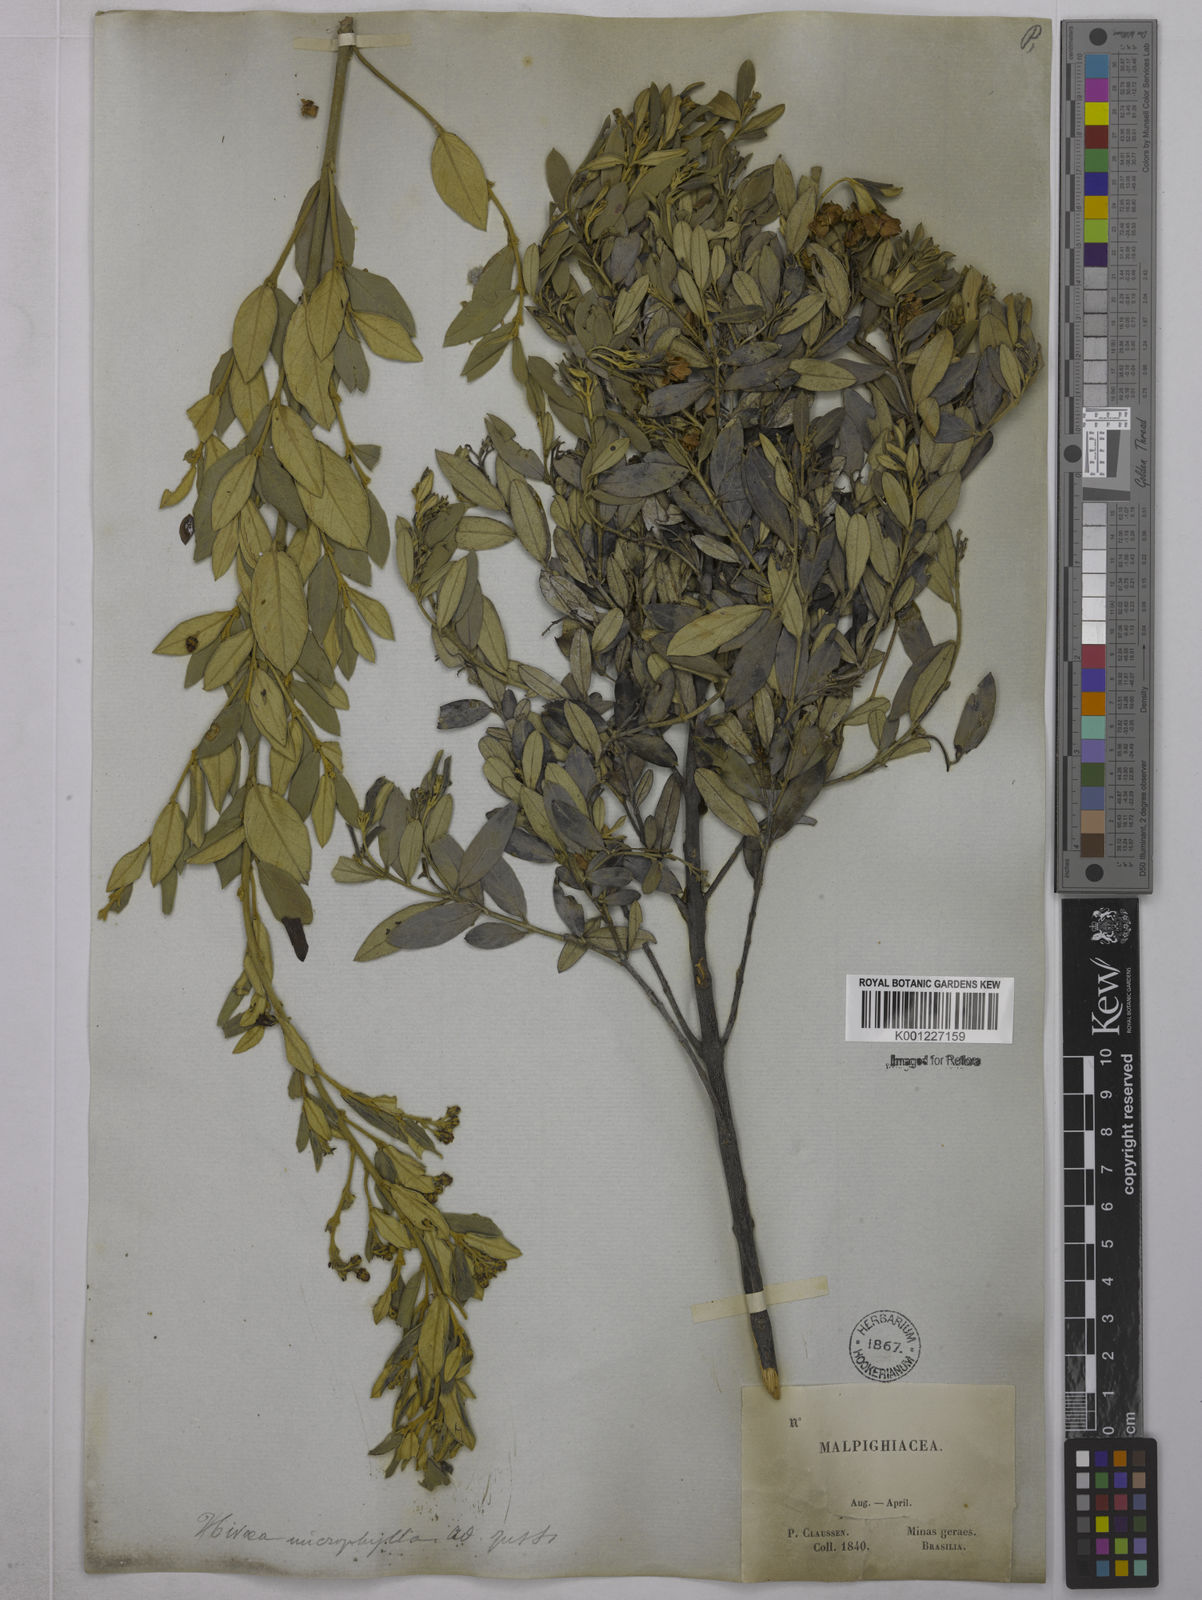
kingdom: Plantae
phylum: Tracheophyta
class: Magnoliopsida
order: Malpighiales
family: Malpighiaceae
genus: Glicophyllum
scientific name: Glicophyllum microphyllum
